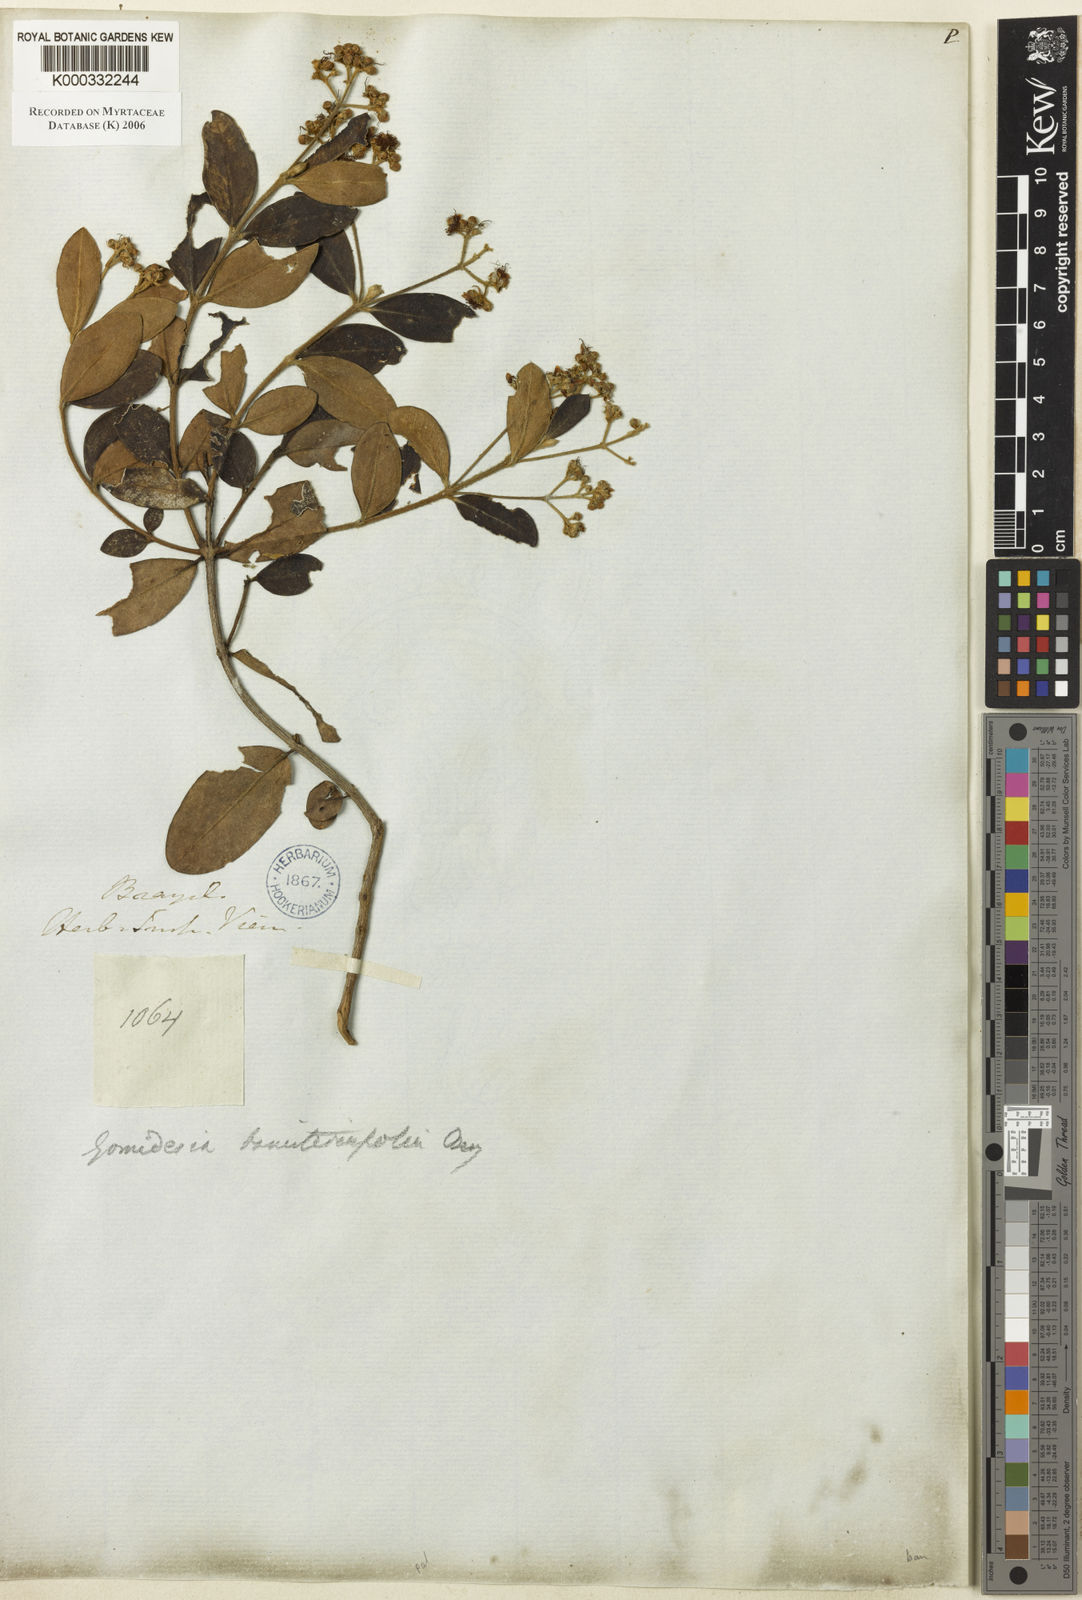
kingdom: Plantae
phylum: Tracheophyta
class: Magnoliopsida
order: Myrtales
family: Myrtaceae
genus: Myrcia
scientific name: Myrcia palustris
